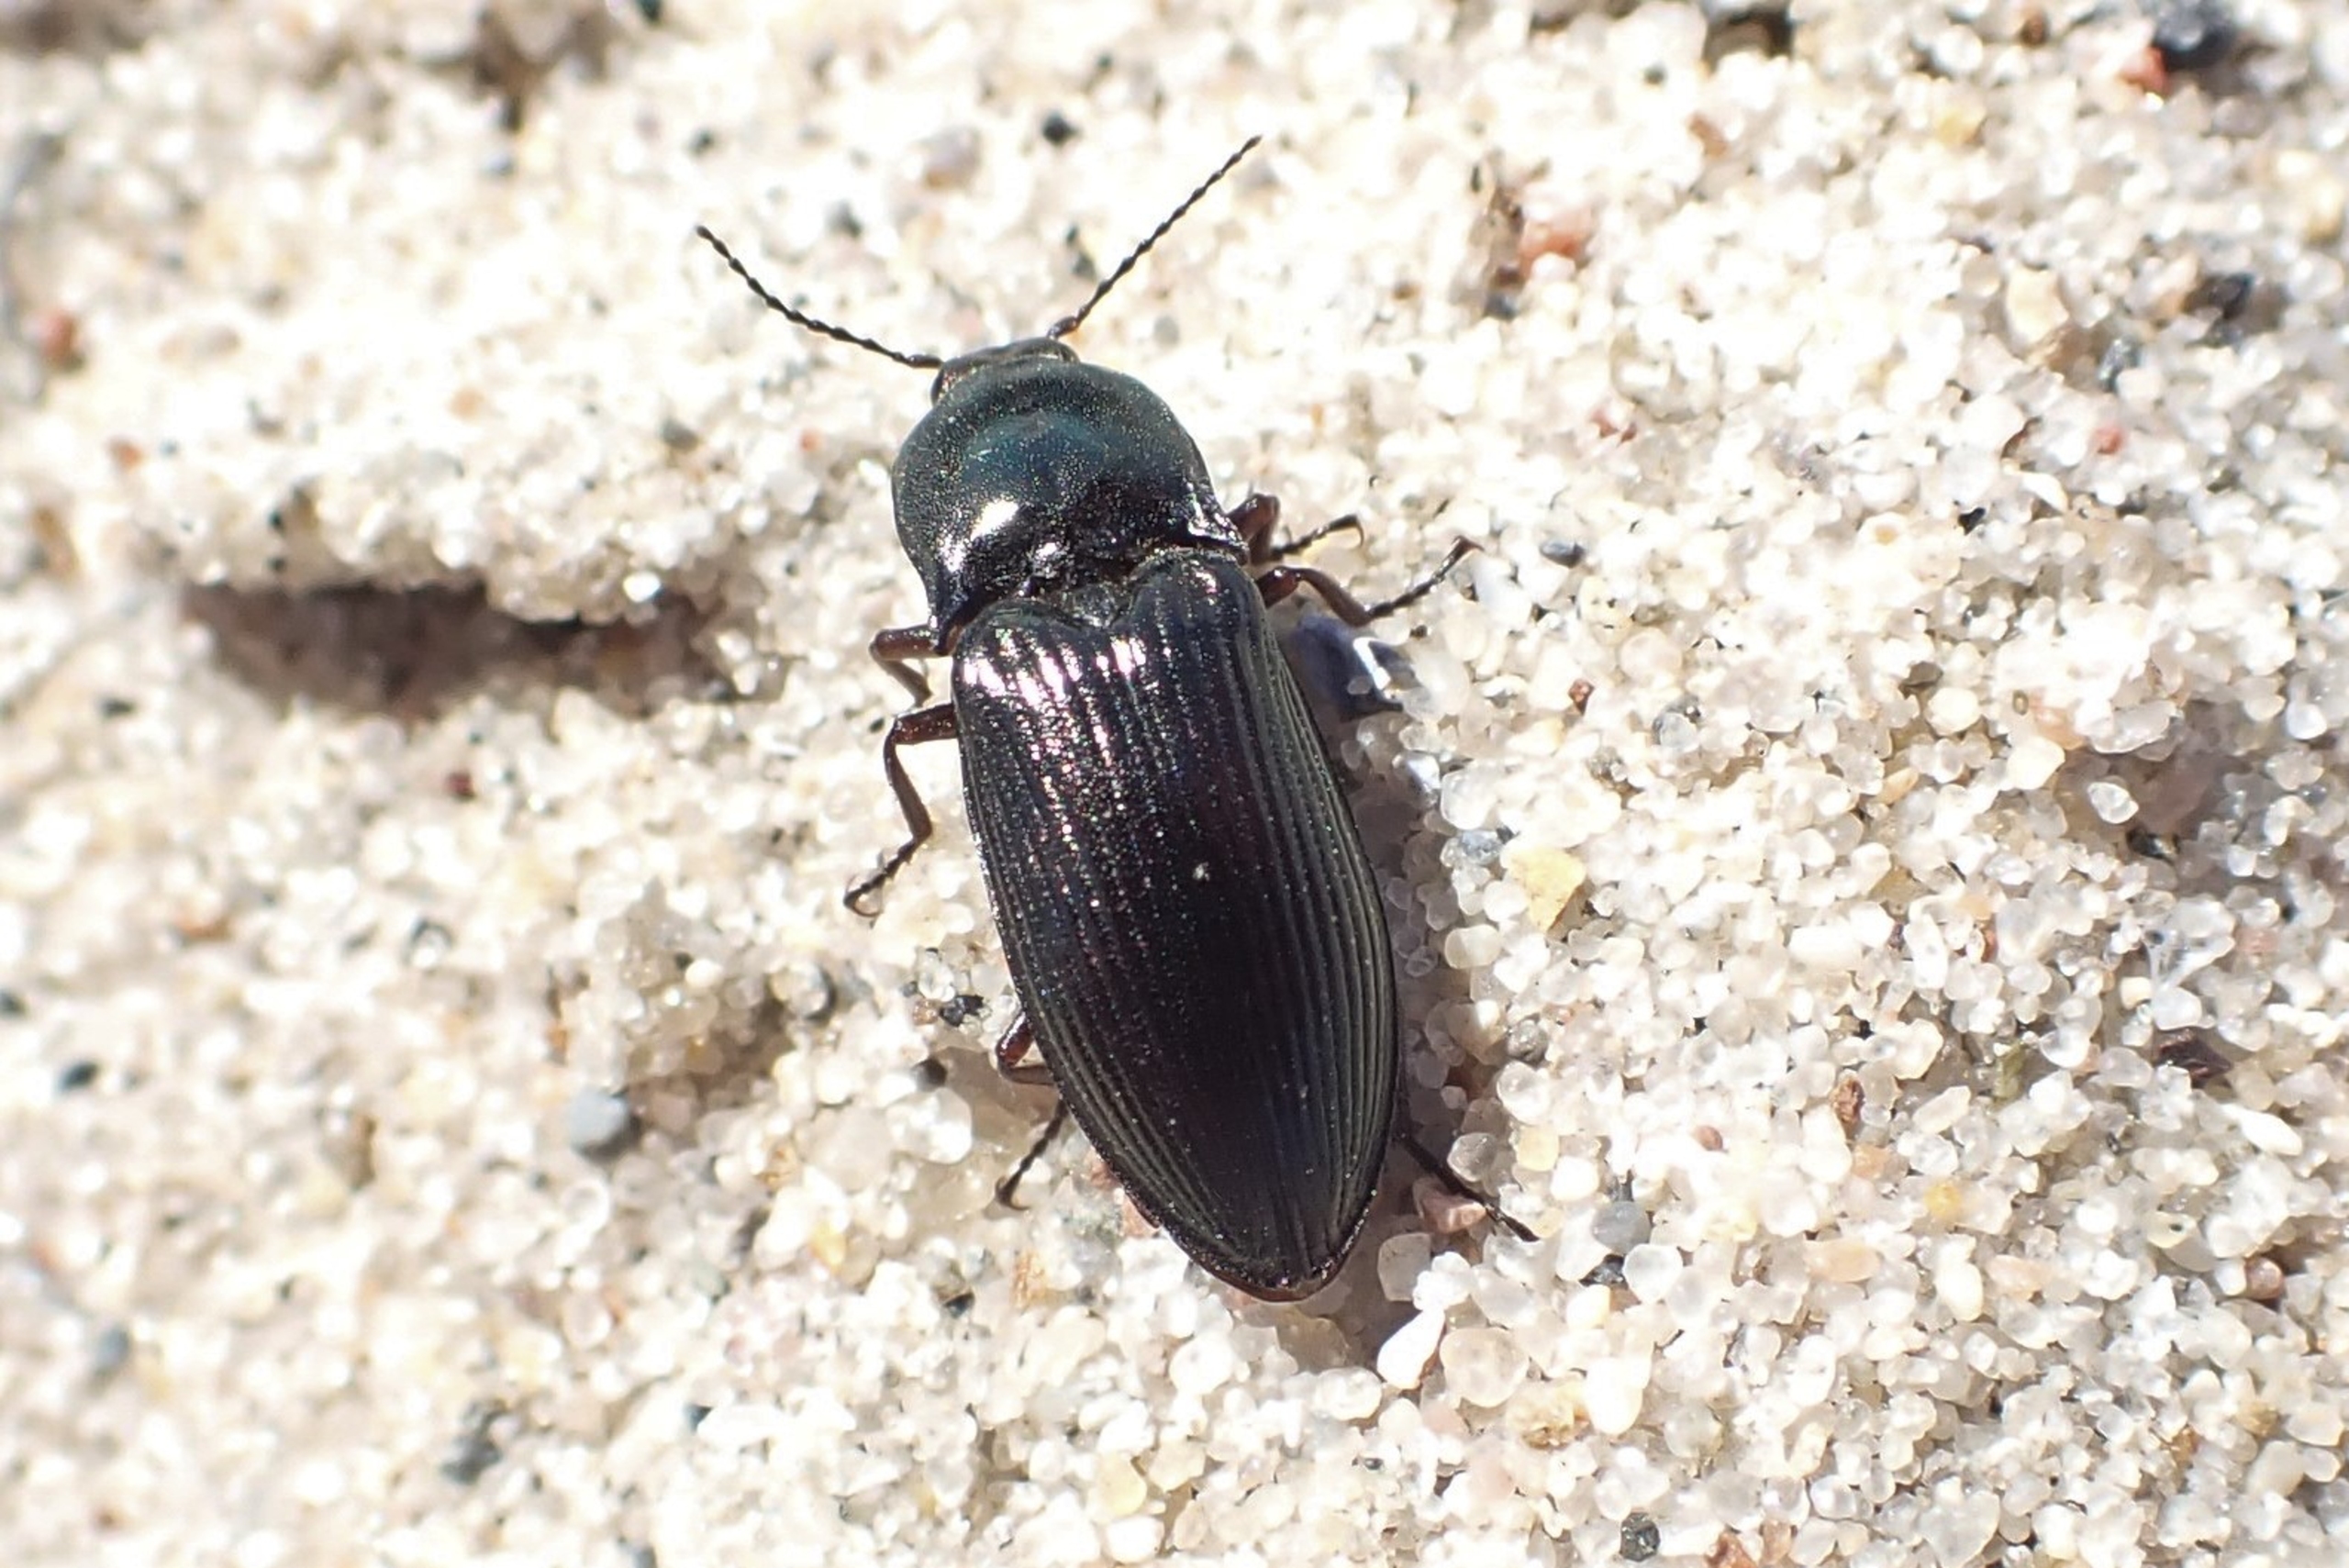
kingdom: Animalia
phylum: Arthropoda
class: Insecta
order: Coleoptera
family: Elateridae
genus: Selatosomus
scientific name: Selatosomus aeneus
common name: Kobbersmælder
